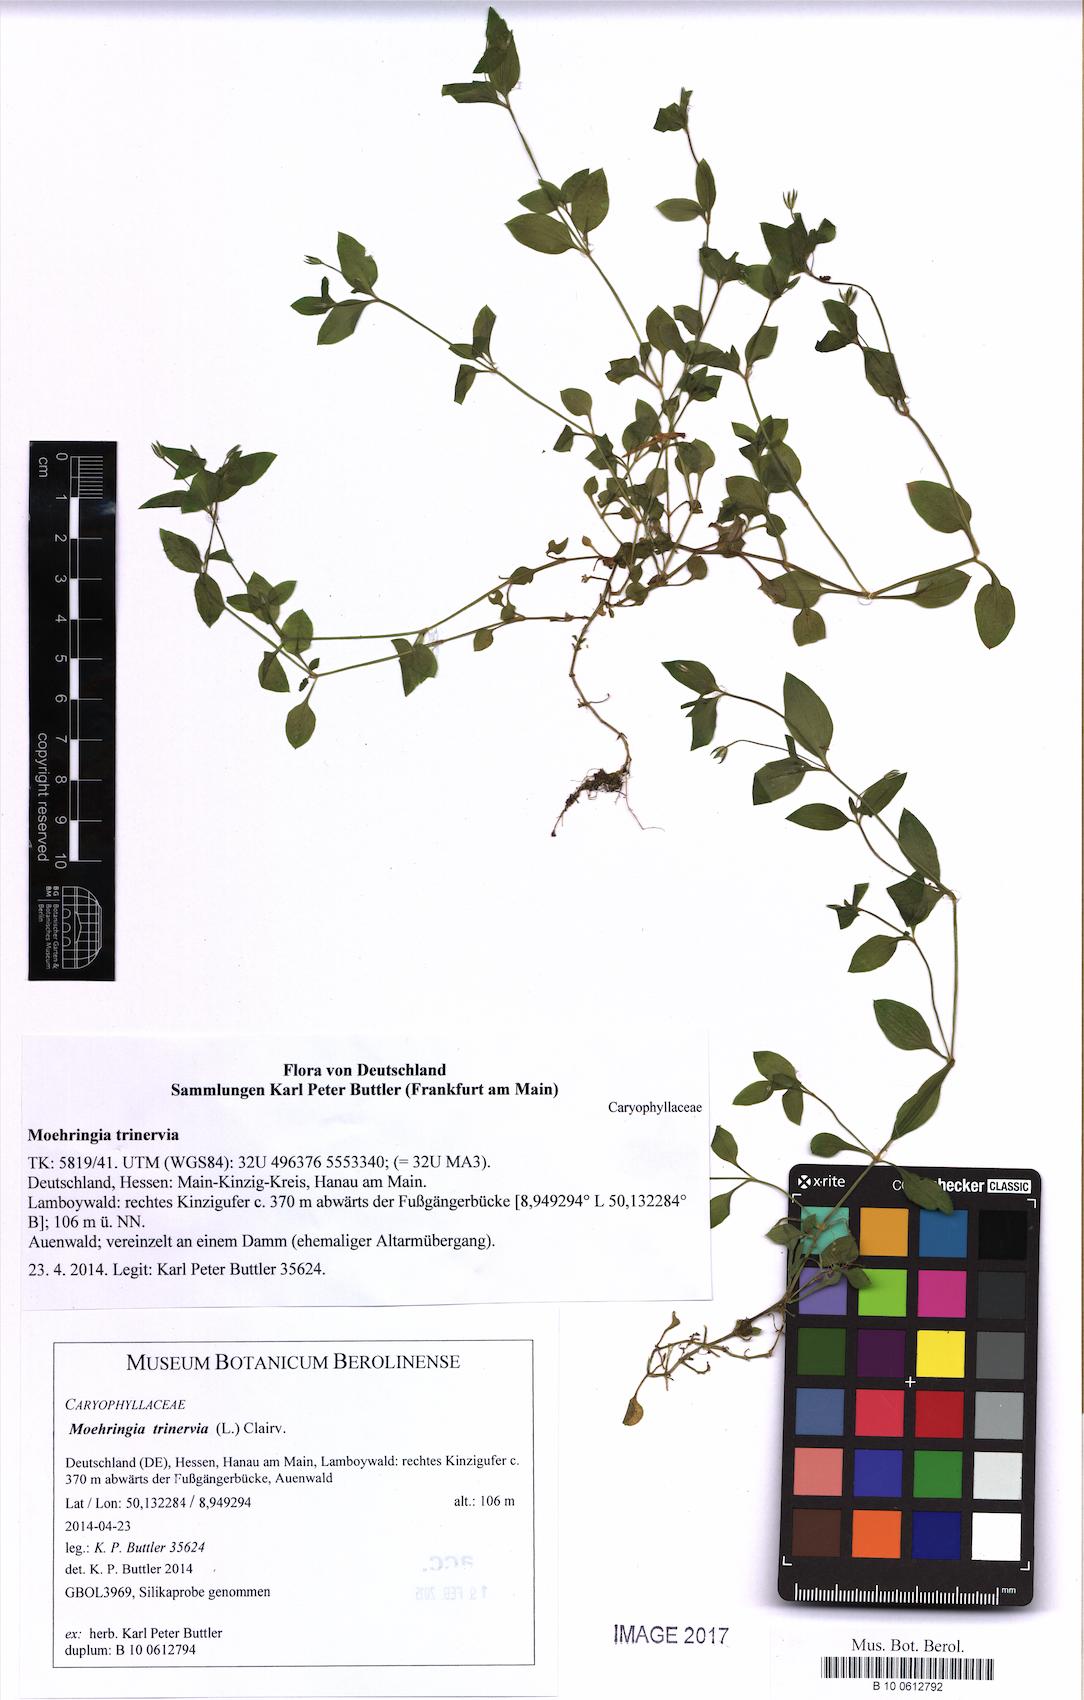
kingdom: Plantae
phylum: Tracheophyta
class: Magnoliopsida
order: Caryophyllales
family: Caryophyllaceae
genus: Moehringia
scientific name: Moehringia trinervia
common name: Three-nerved sandwort
